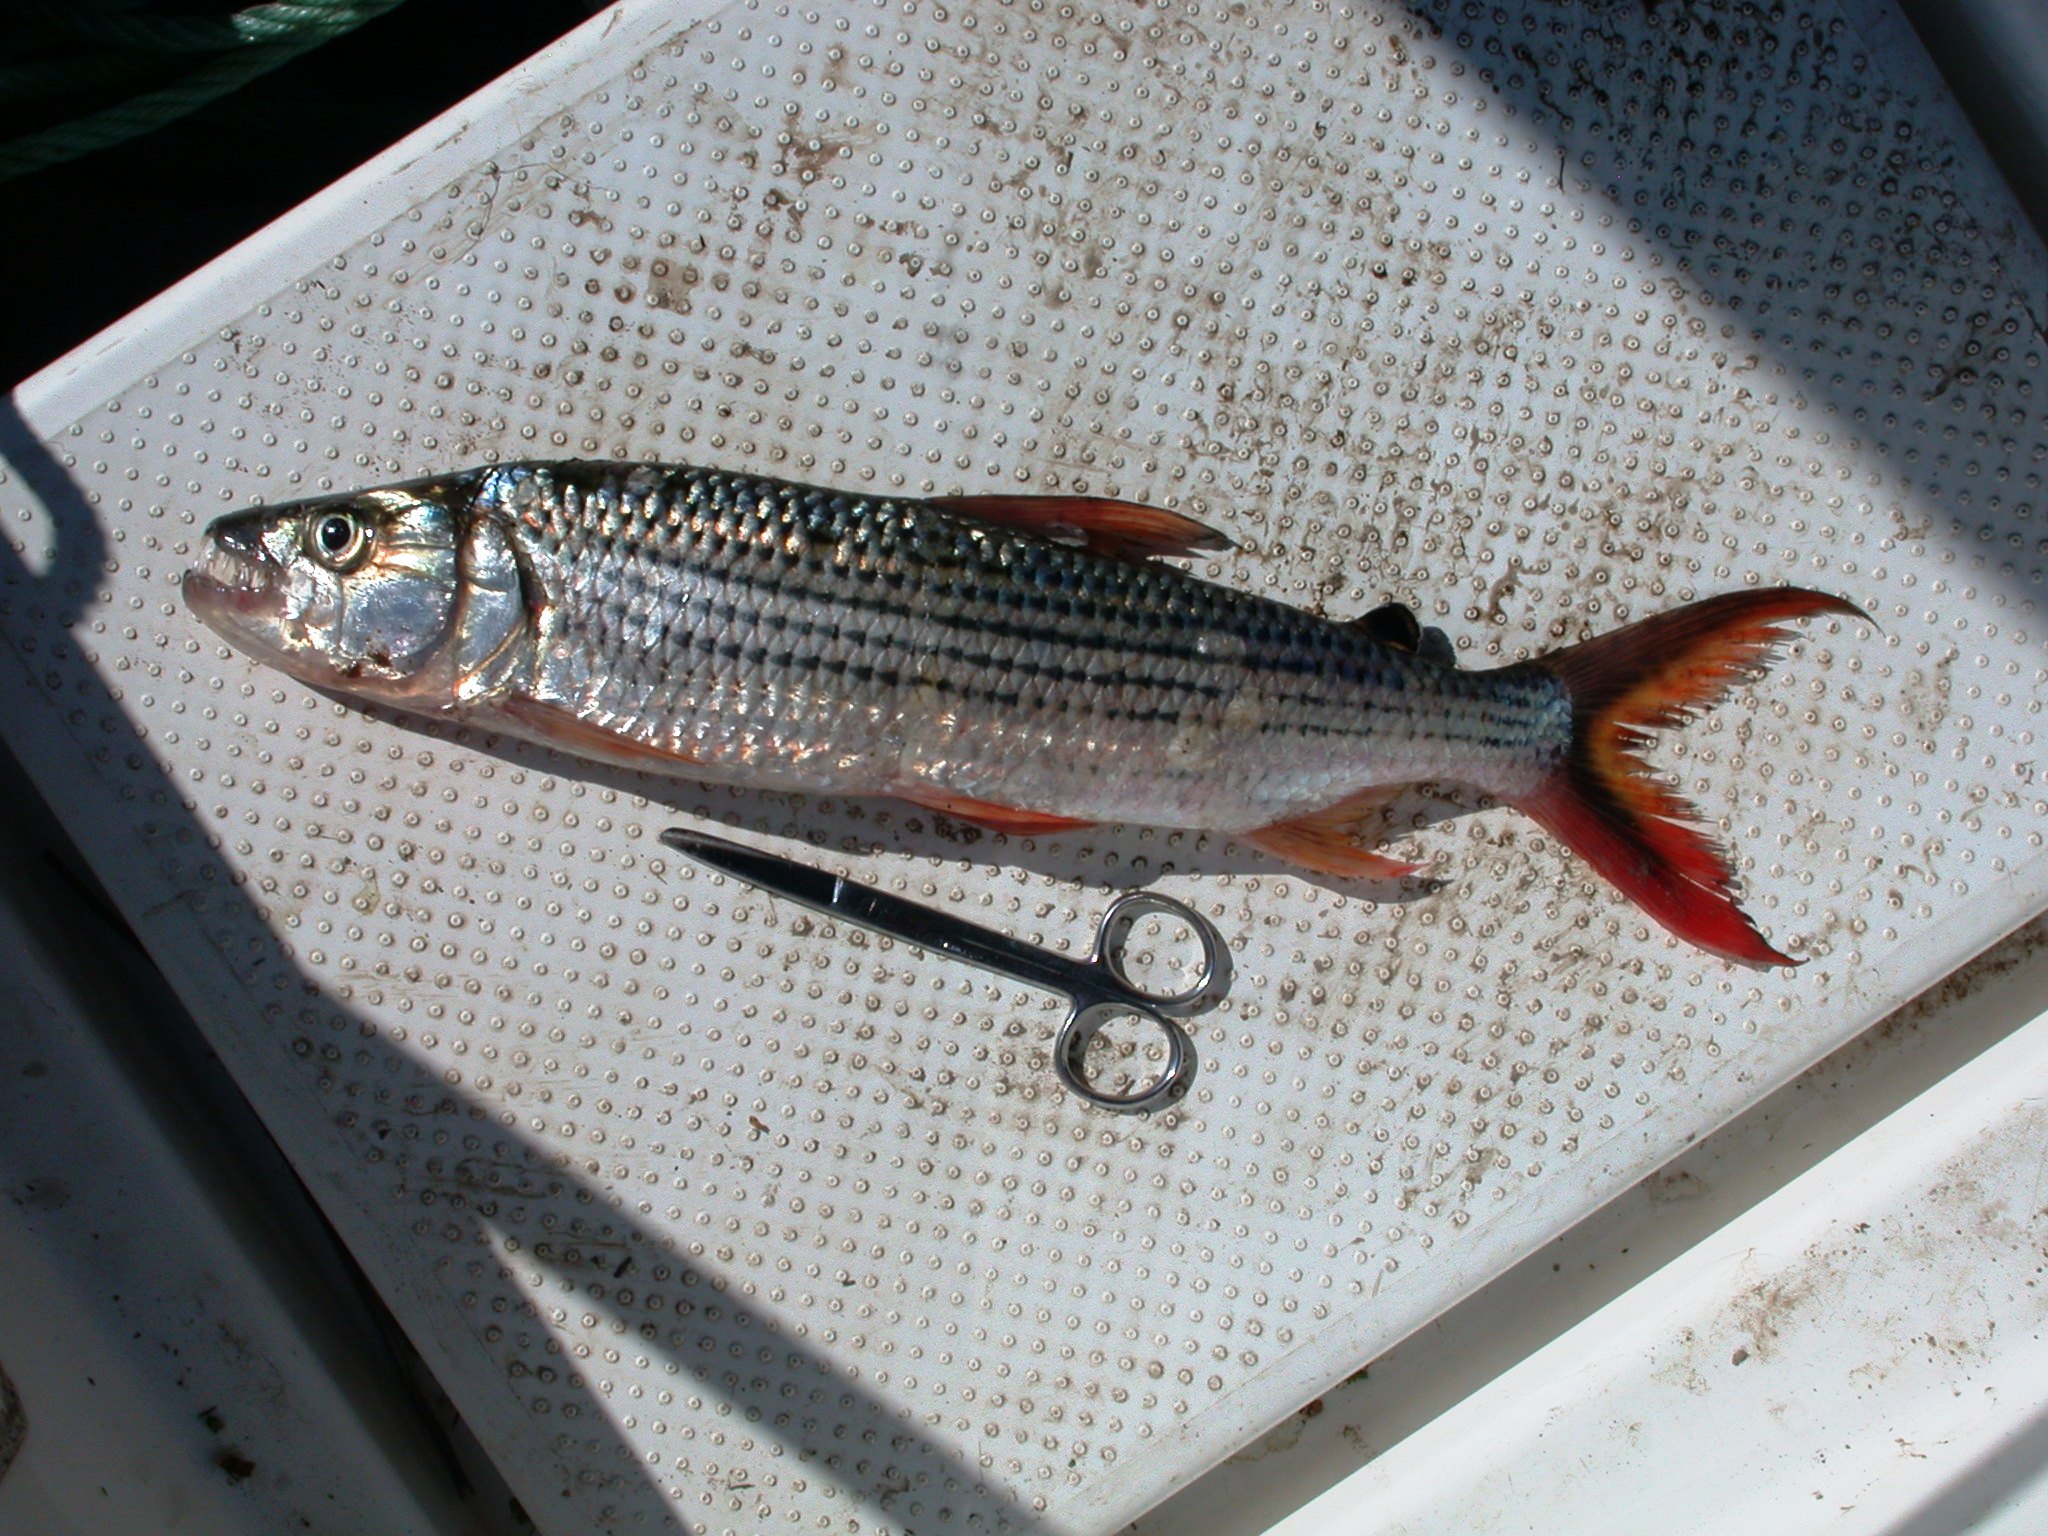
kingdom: Animalia
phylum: Chordata
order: Characiformes
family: Alestidae
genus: Hydrocynus
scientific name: Hydrocynus vittatus
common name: Tigerfish
